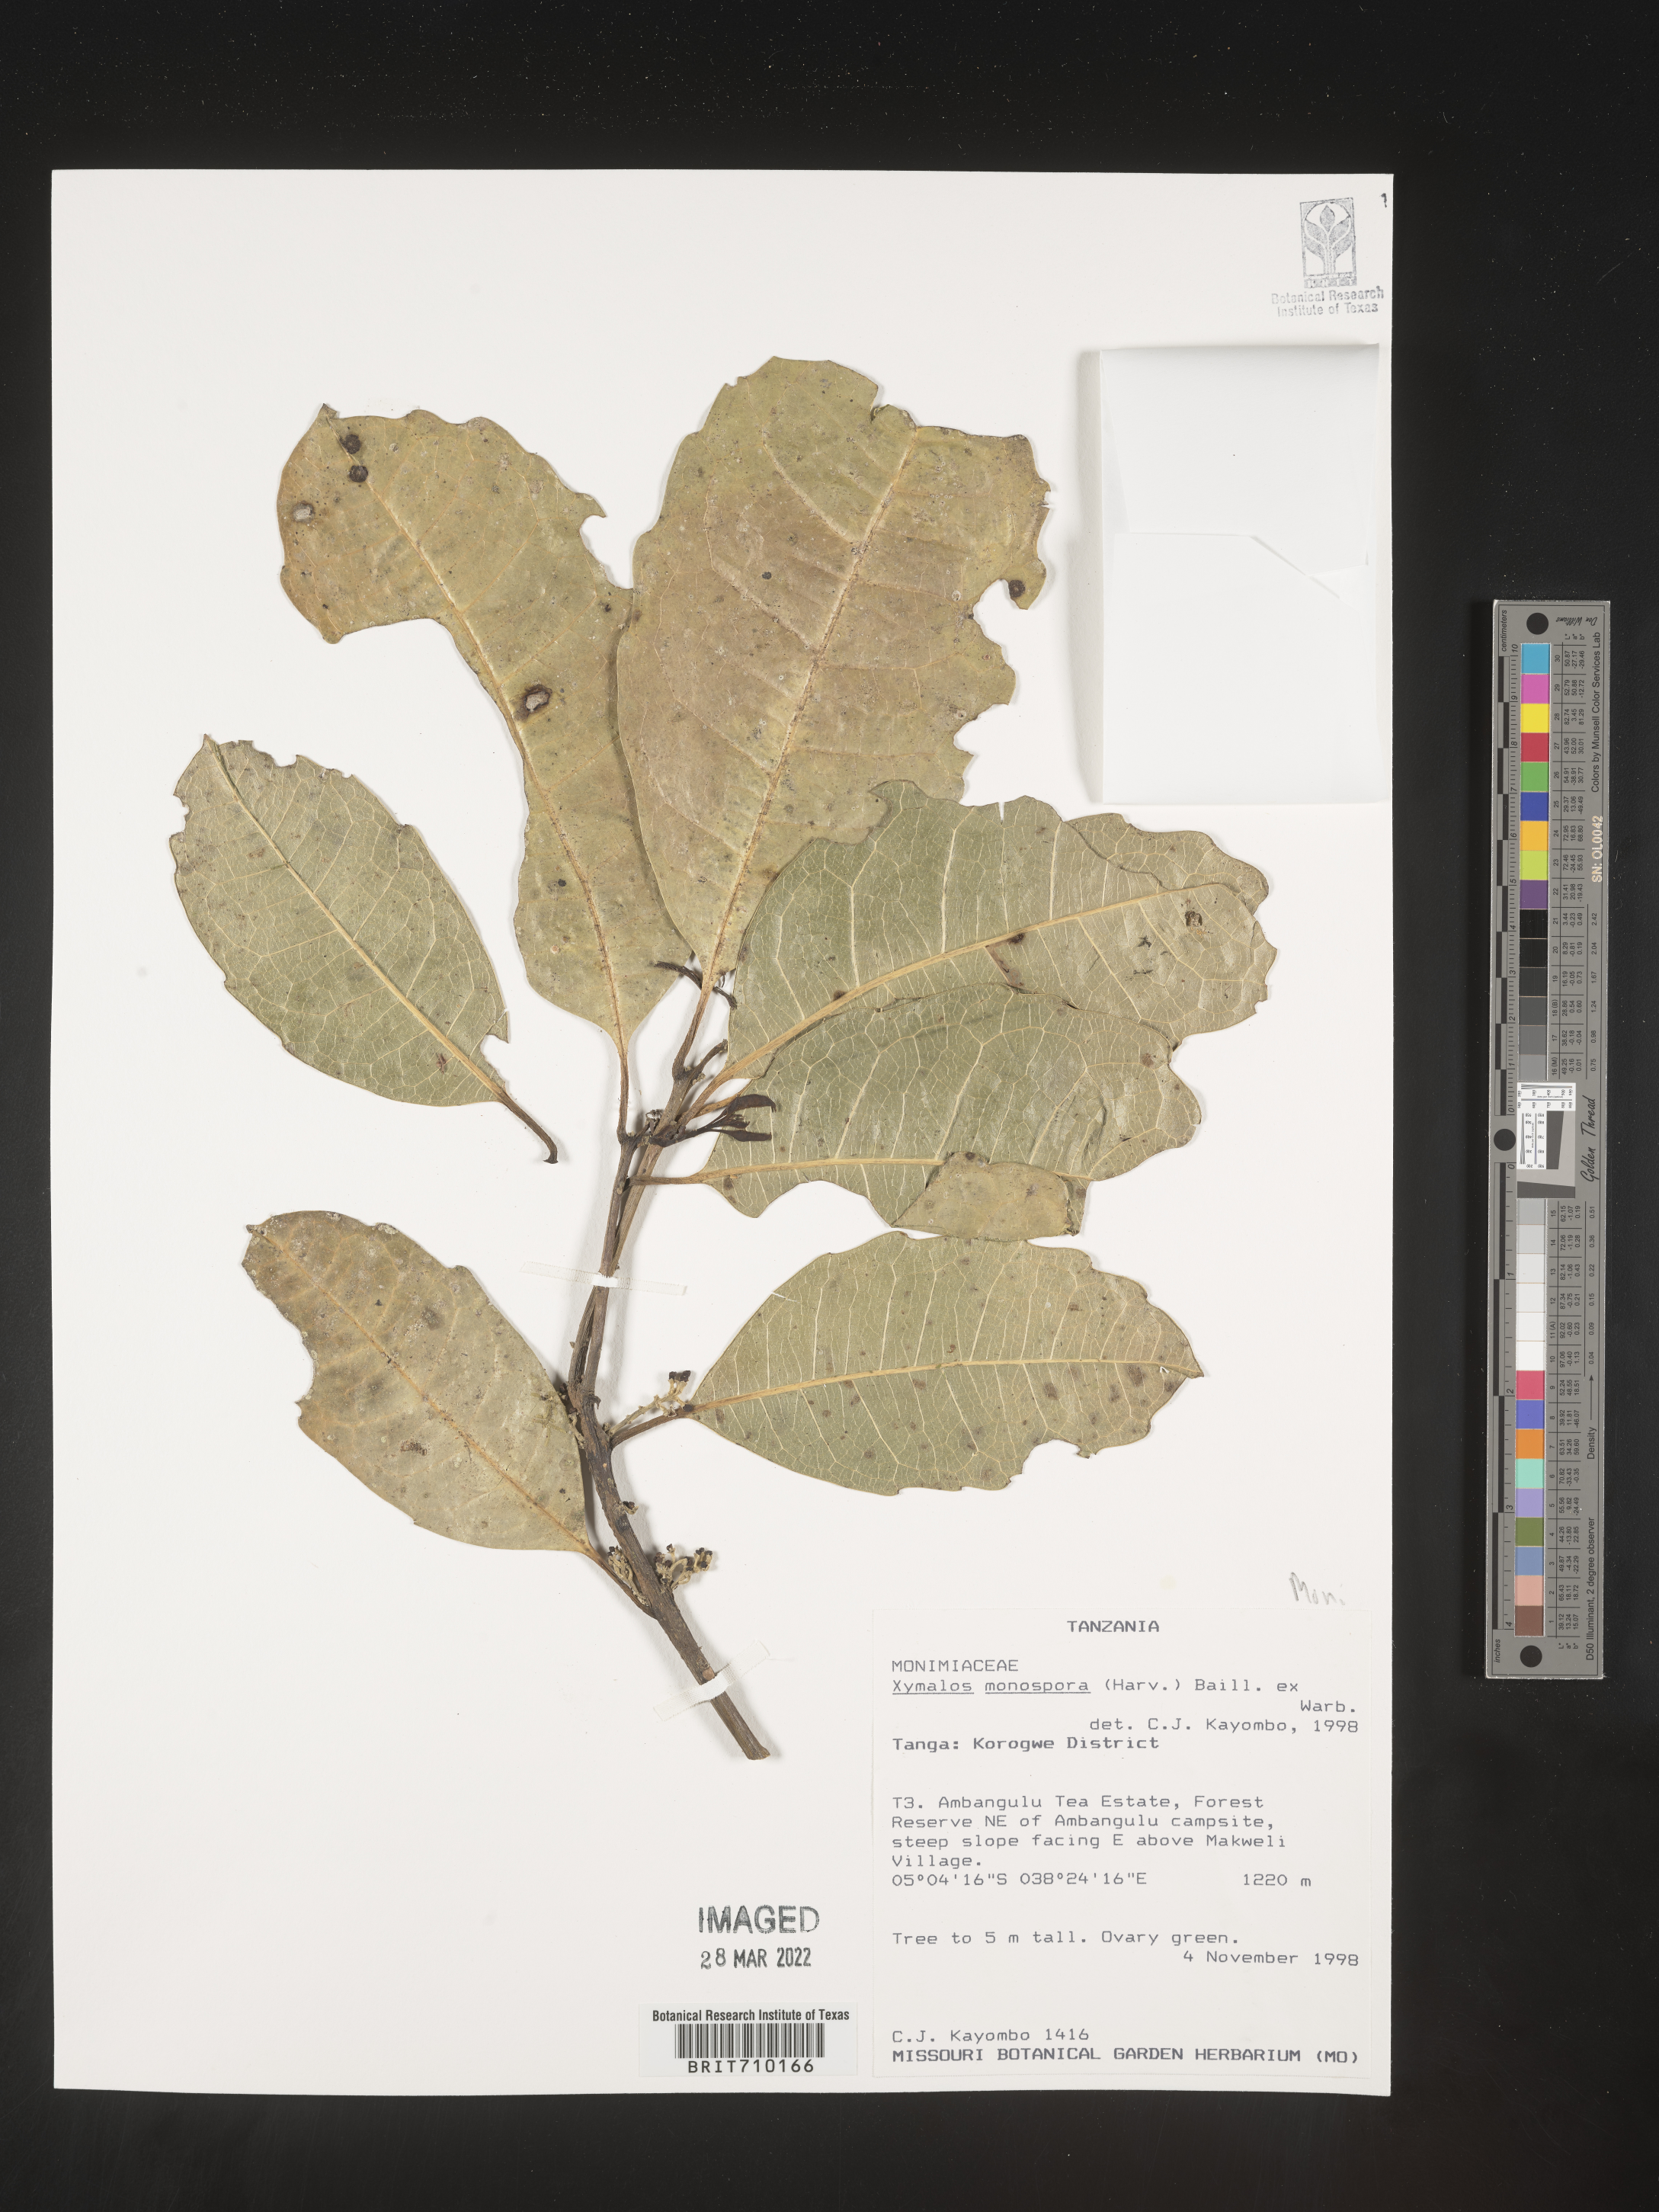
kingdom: Plantae
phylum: Tracheophyta
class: Magnoliopsida
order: Laurales
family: Monimiaceae
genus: Xymalos
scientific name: Xymalos
